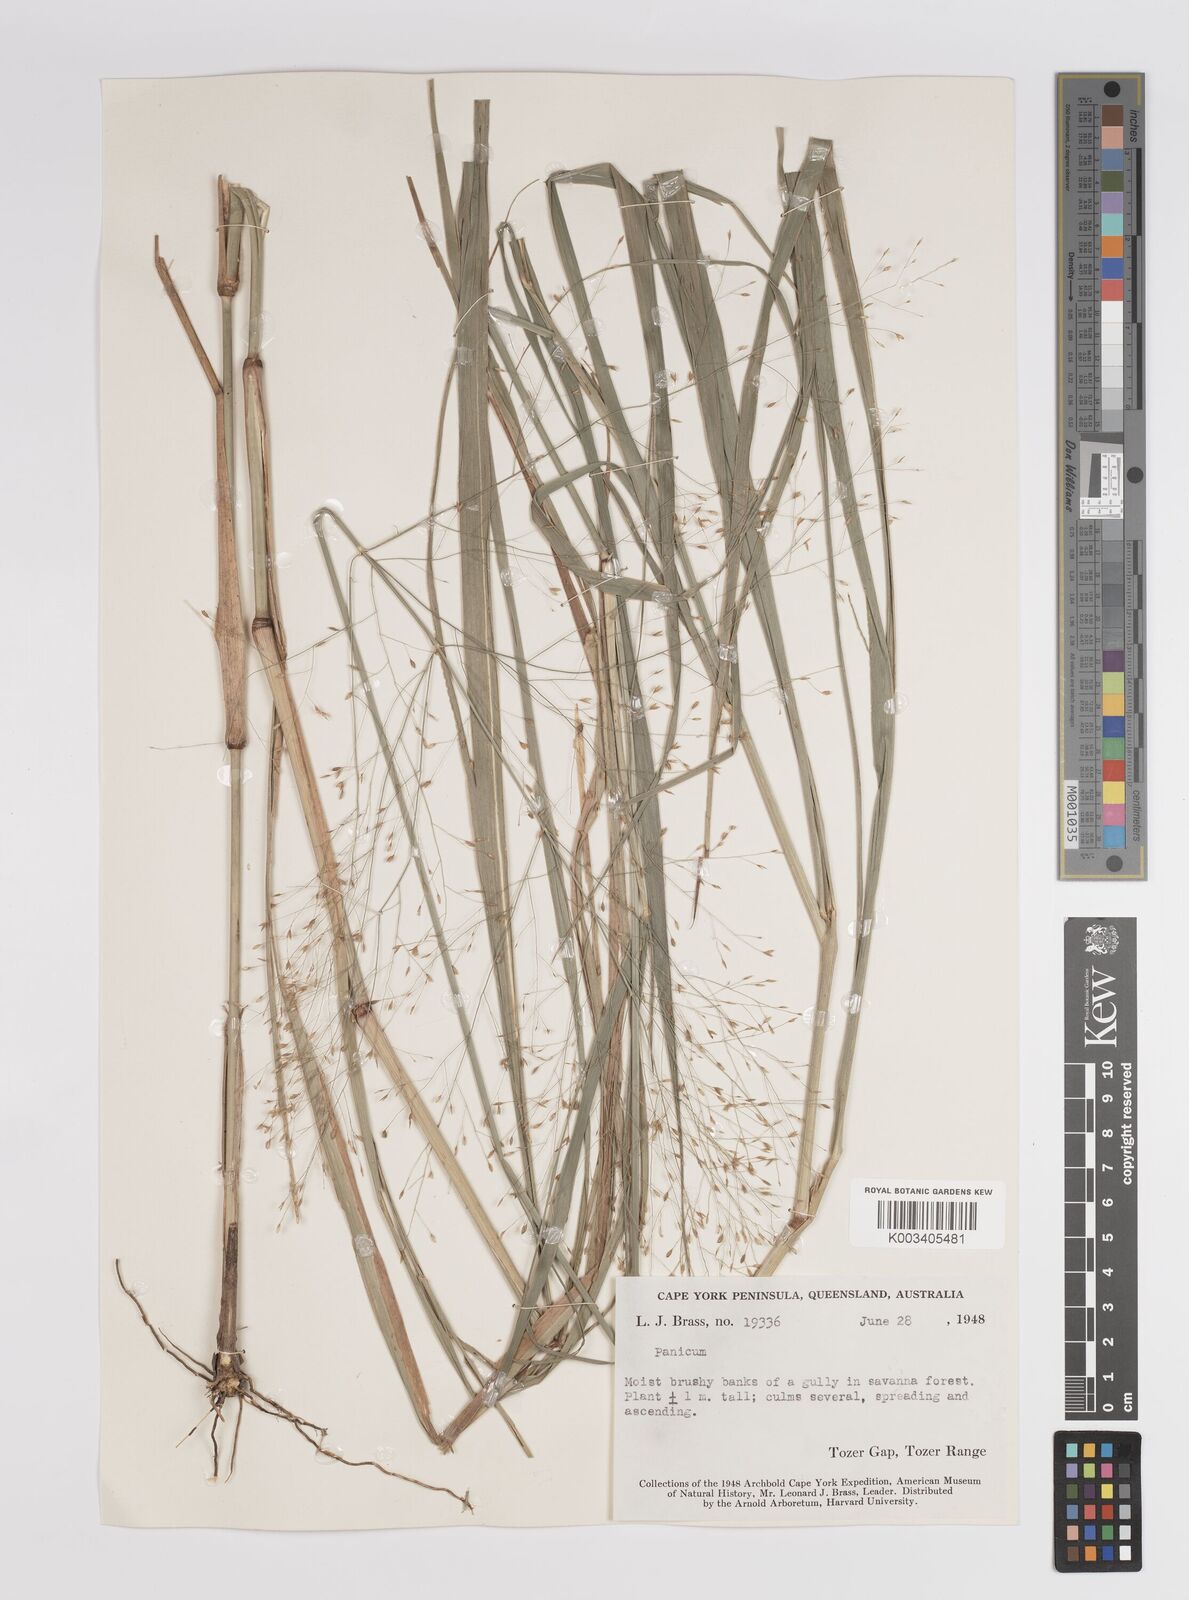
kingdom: Plantae
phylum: Tracheophyta
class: Liliopsida
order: Poales
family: Poaceae
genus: Panicum
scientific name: Panicum
